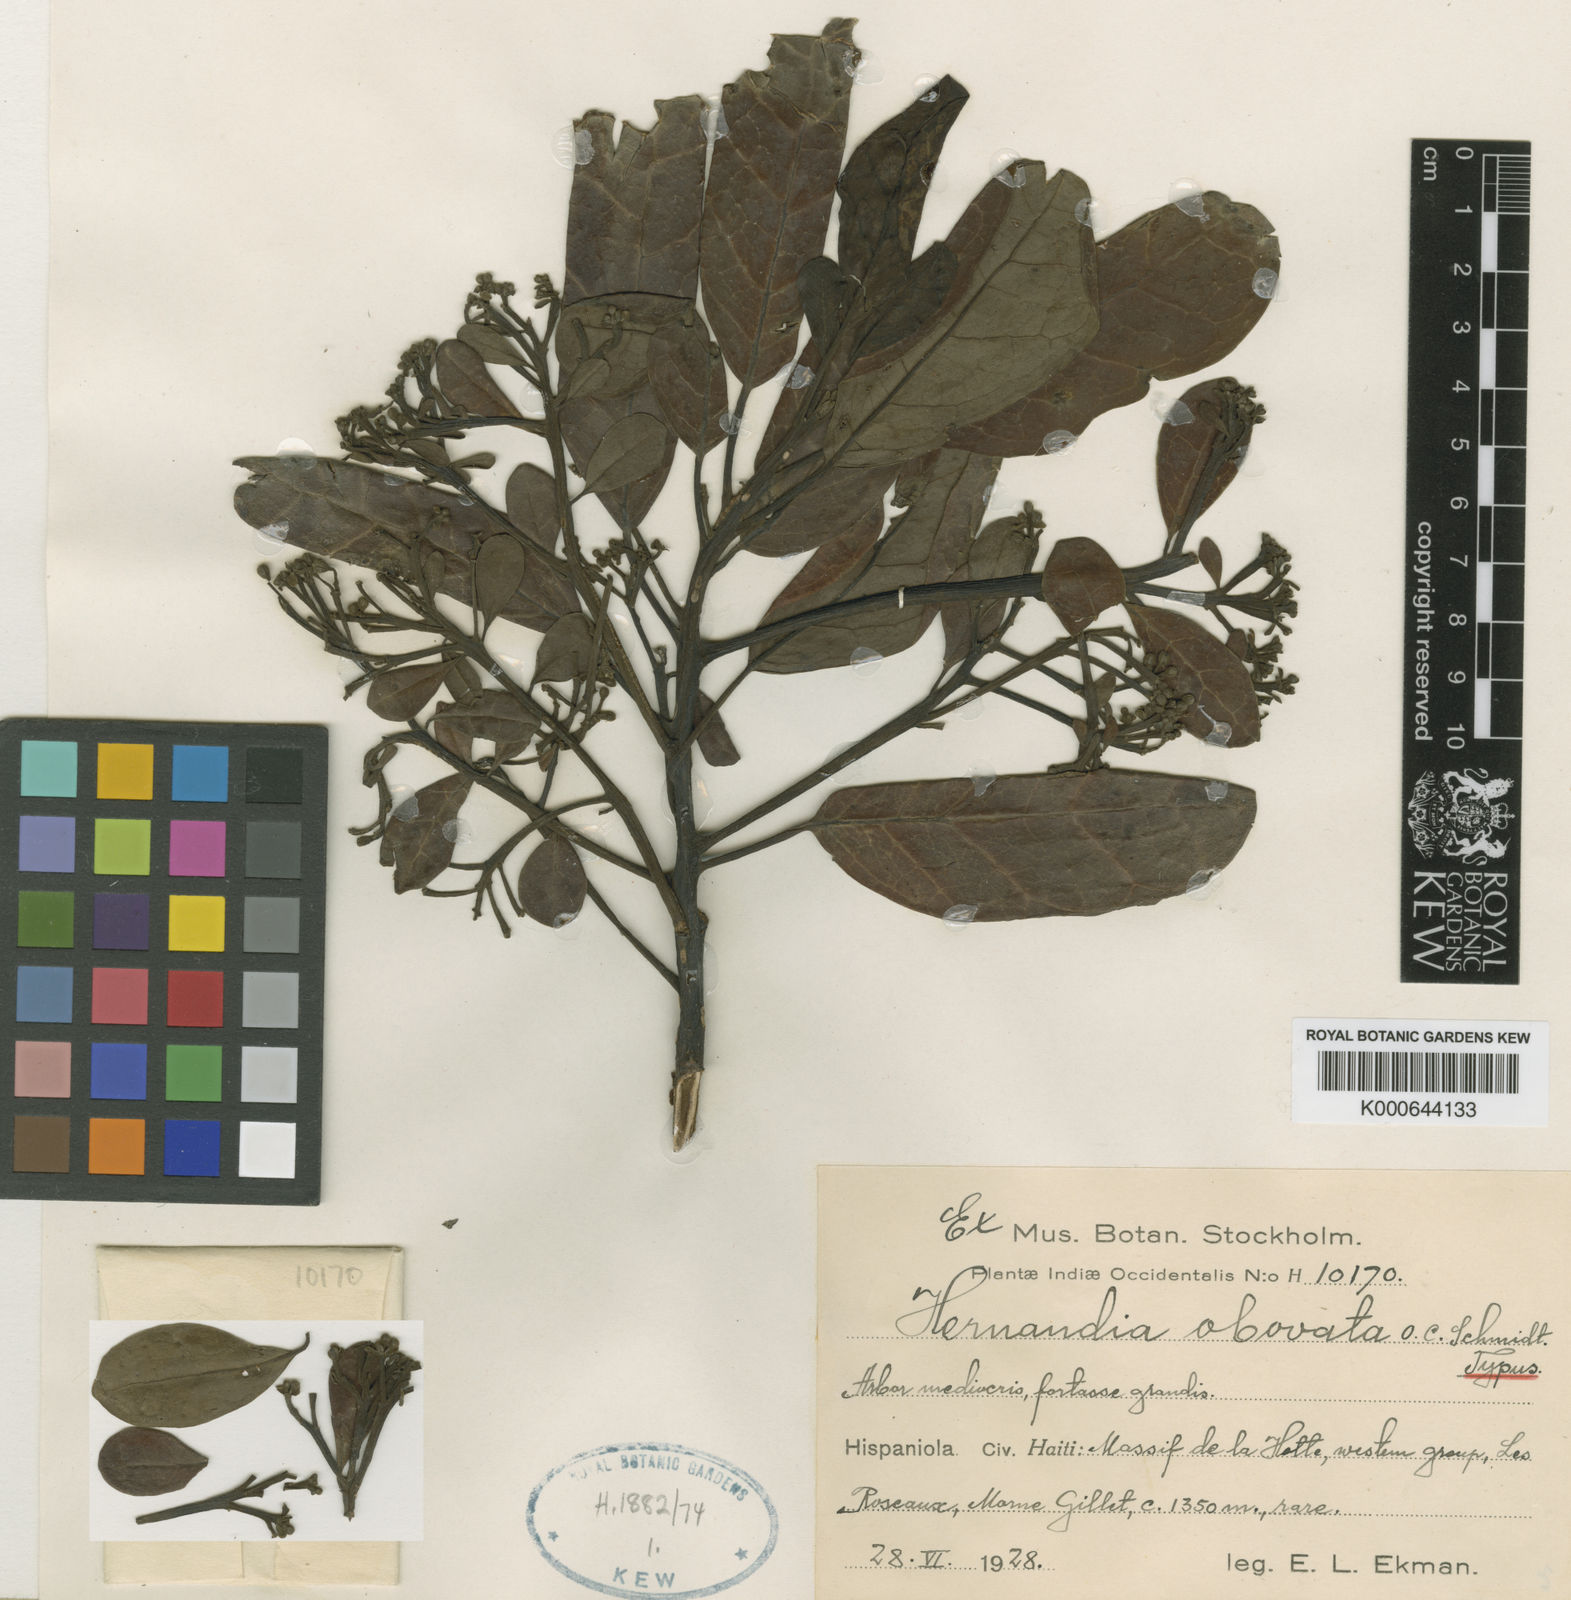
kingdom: Plantae
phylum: Tracheophyta
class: Magnoliopsida
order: Laurales
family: Hernandiaceae
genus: Hernandia
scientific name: Hernandia obovata
